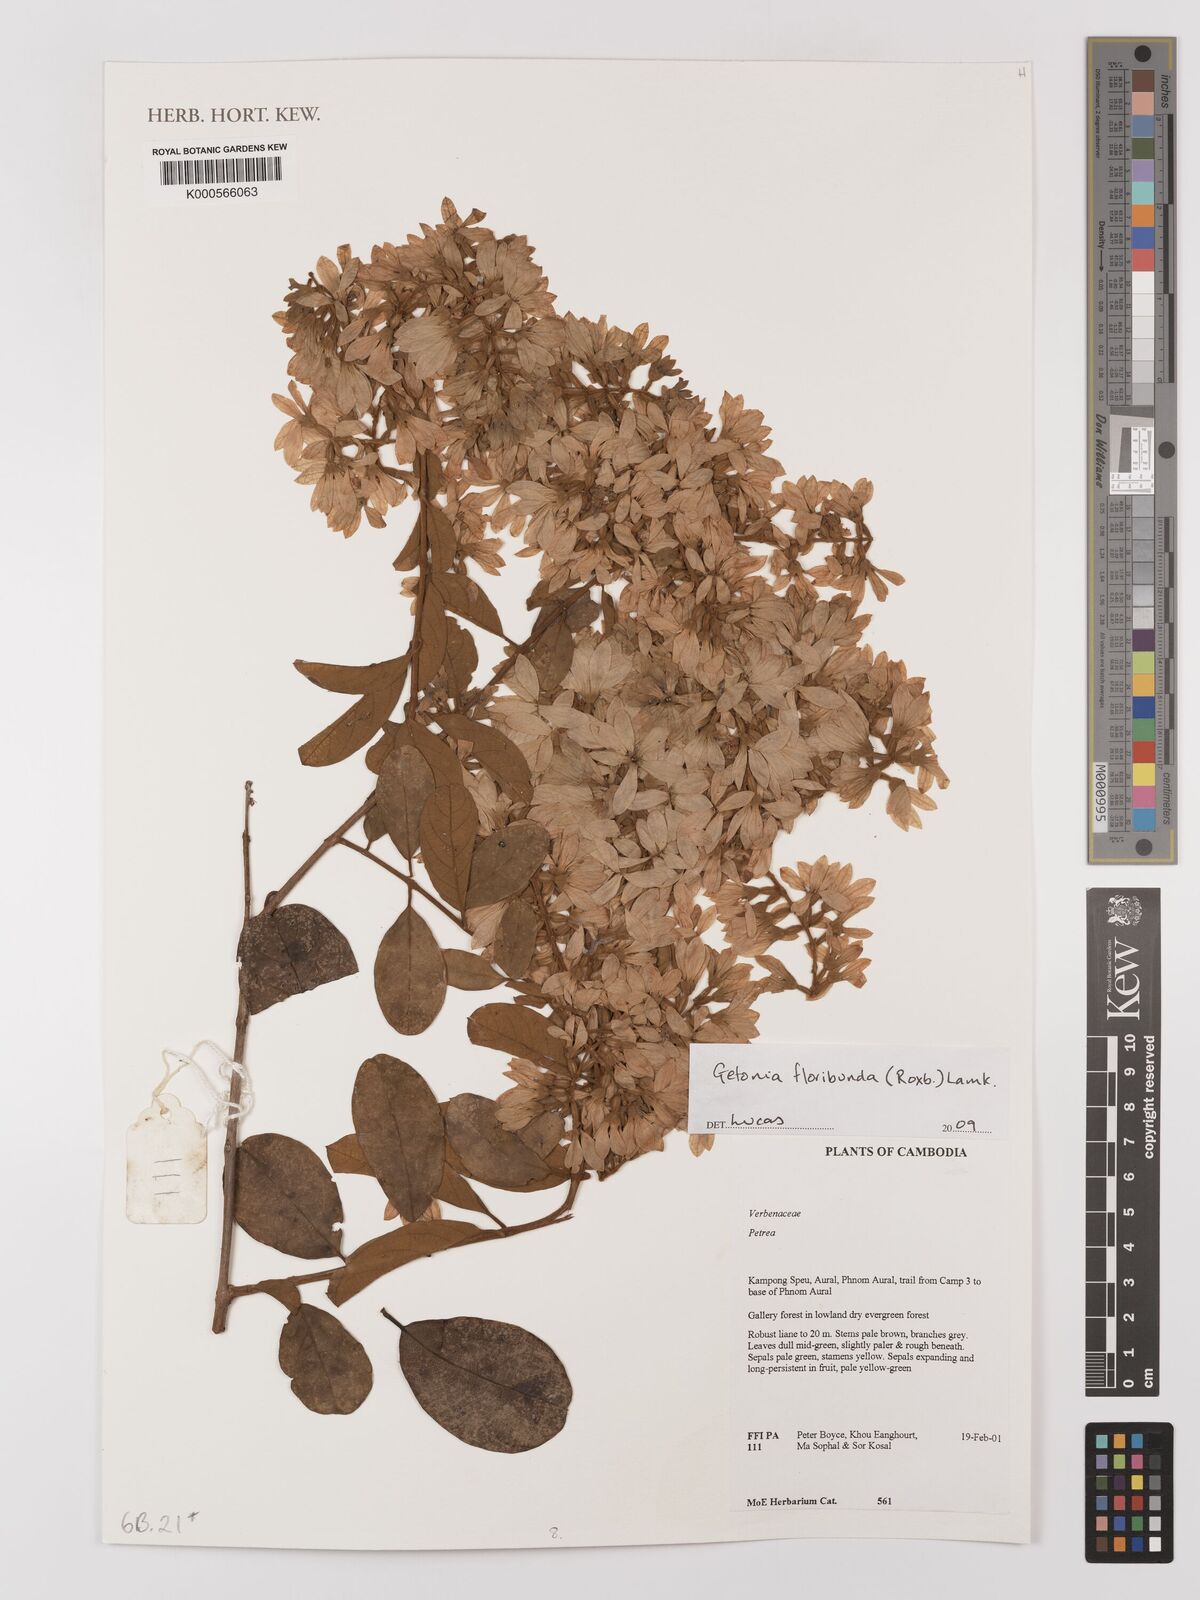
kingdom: Plantae
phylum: Tracheophyta
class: Magnoliopsida
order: Myrtales
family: Combretaceae
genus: Getonia
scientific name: Getonia
